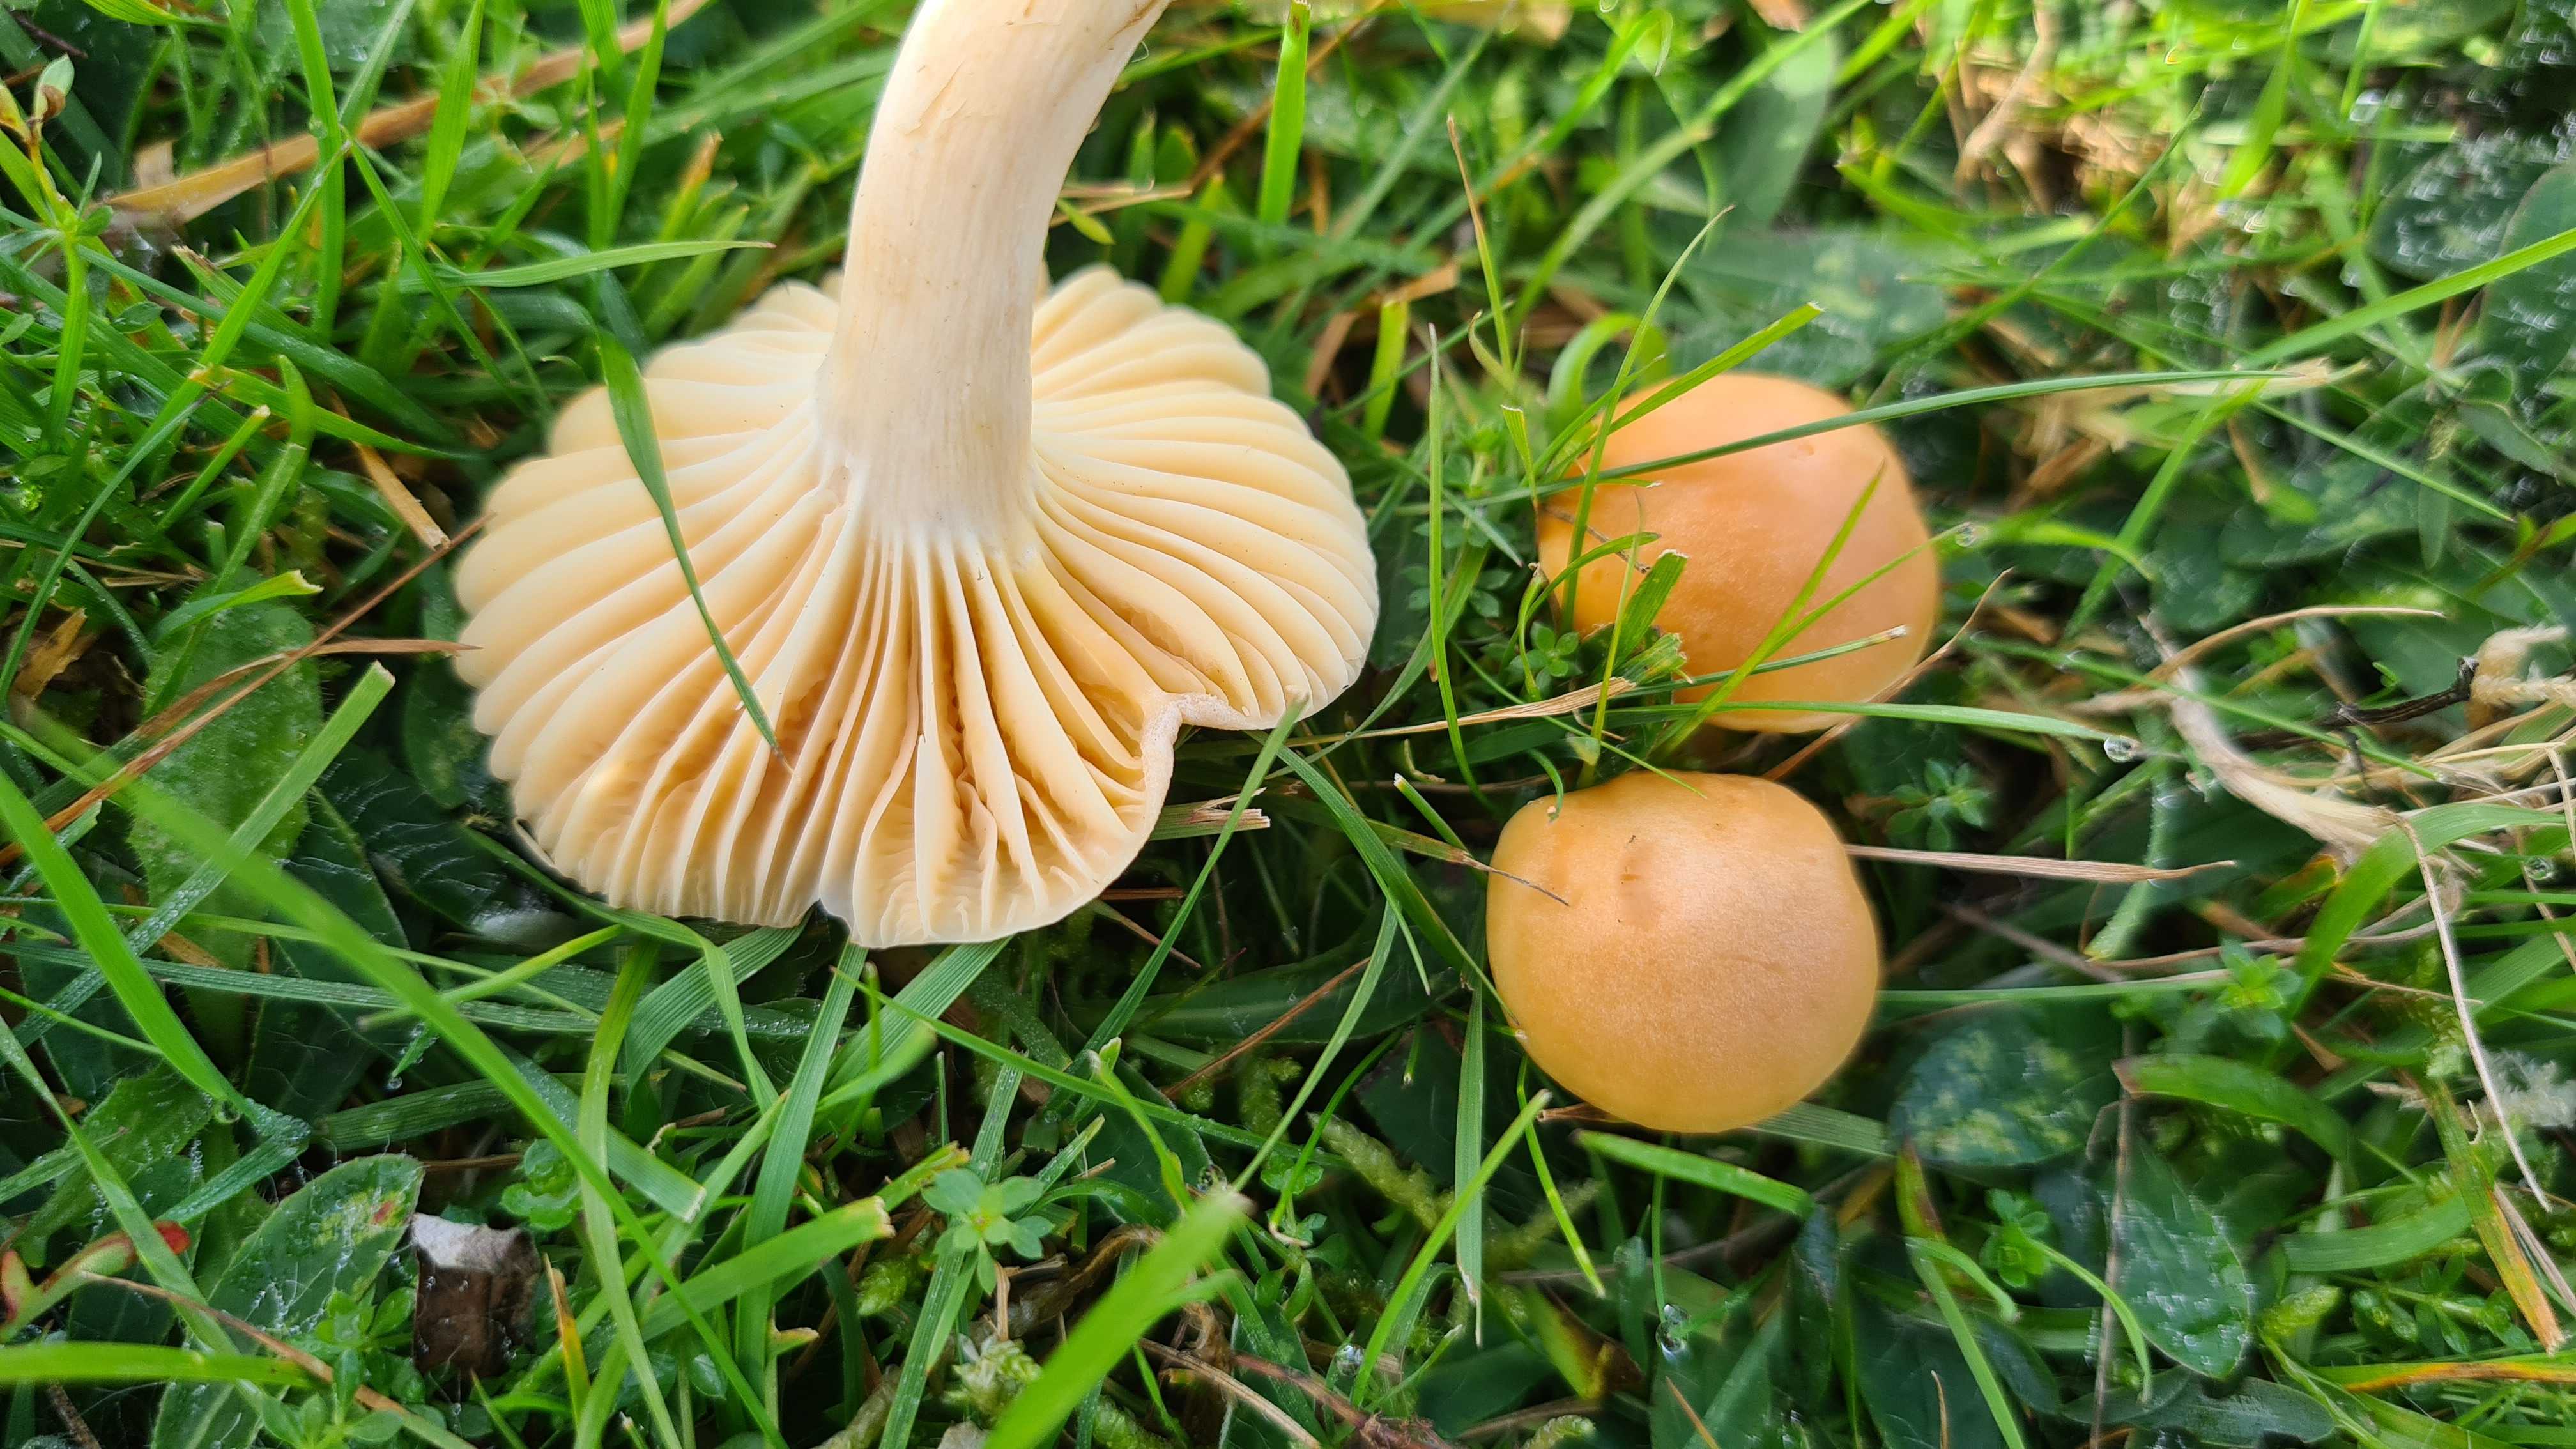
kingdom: Fungi
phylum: Basidiomycota
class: Agaricomycetes
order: Agaricales
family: Hygrophoraceae
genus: Cuphophyllus
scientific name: Cuphophyllus pratensis
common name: eng-vokshat
